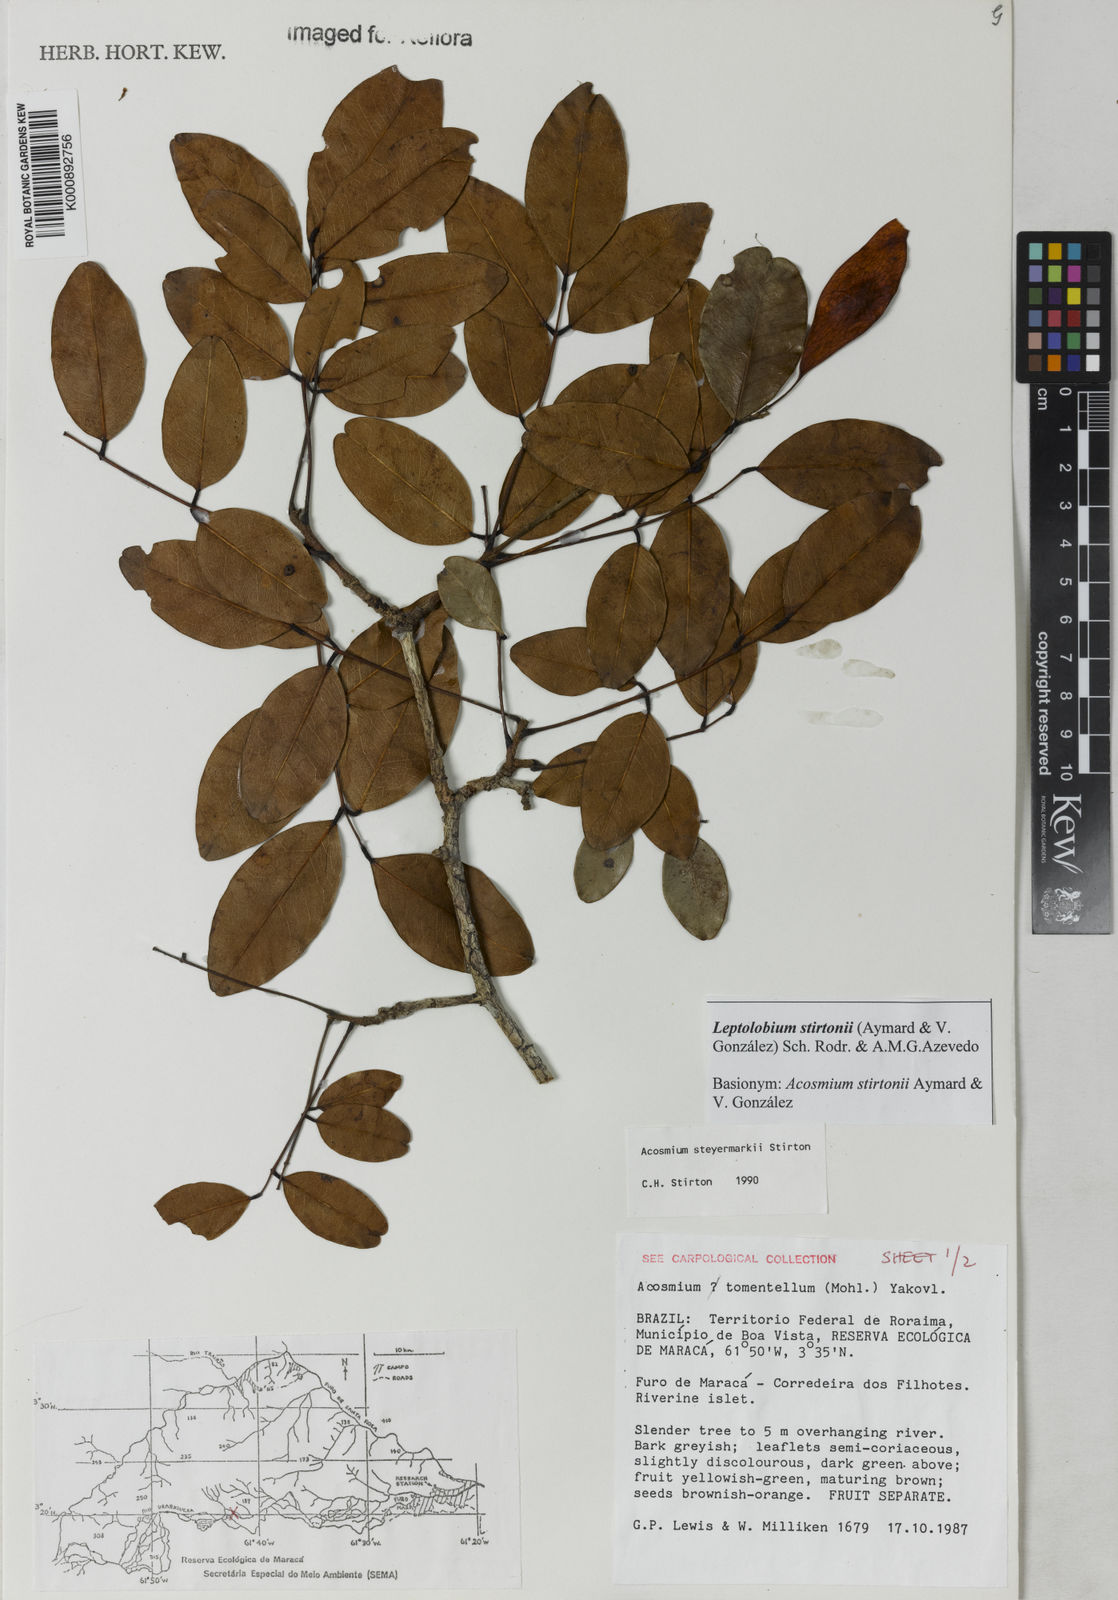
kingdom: Plantae
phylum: Tracheophyta
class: Magnoliopsida
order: Fabales
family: Fabaceae
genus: Leptolobium
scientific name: Leptolobium
